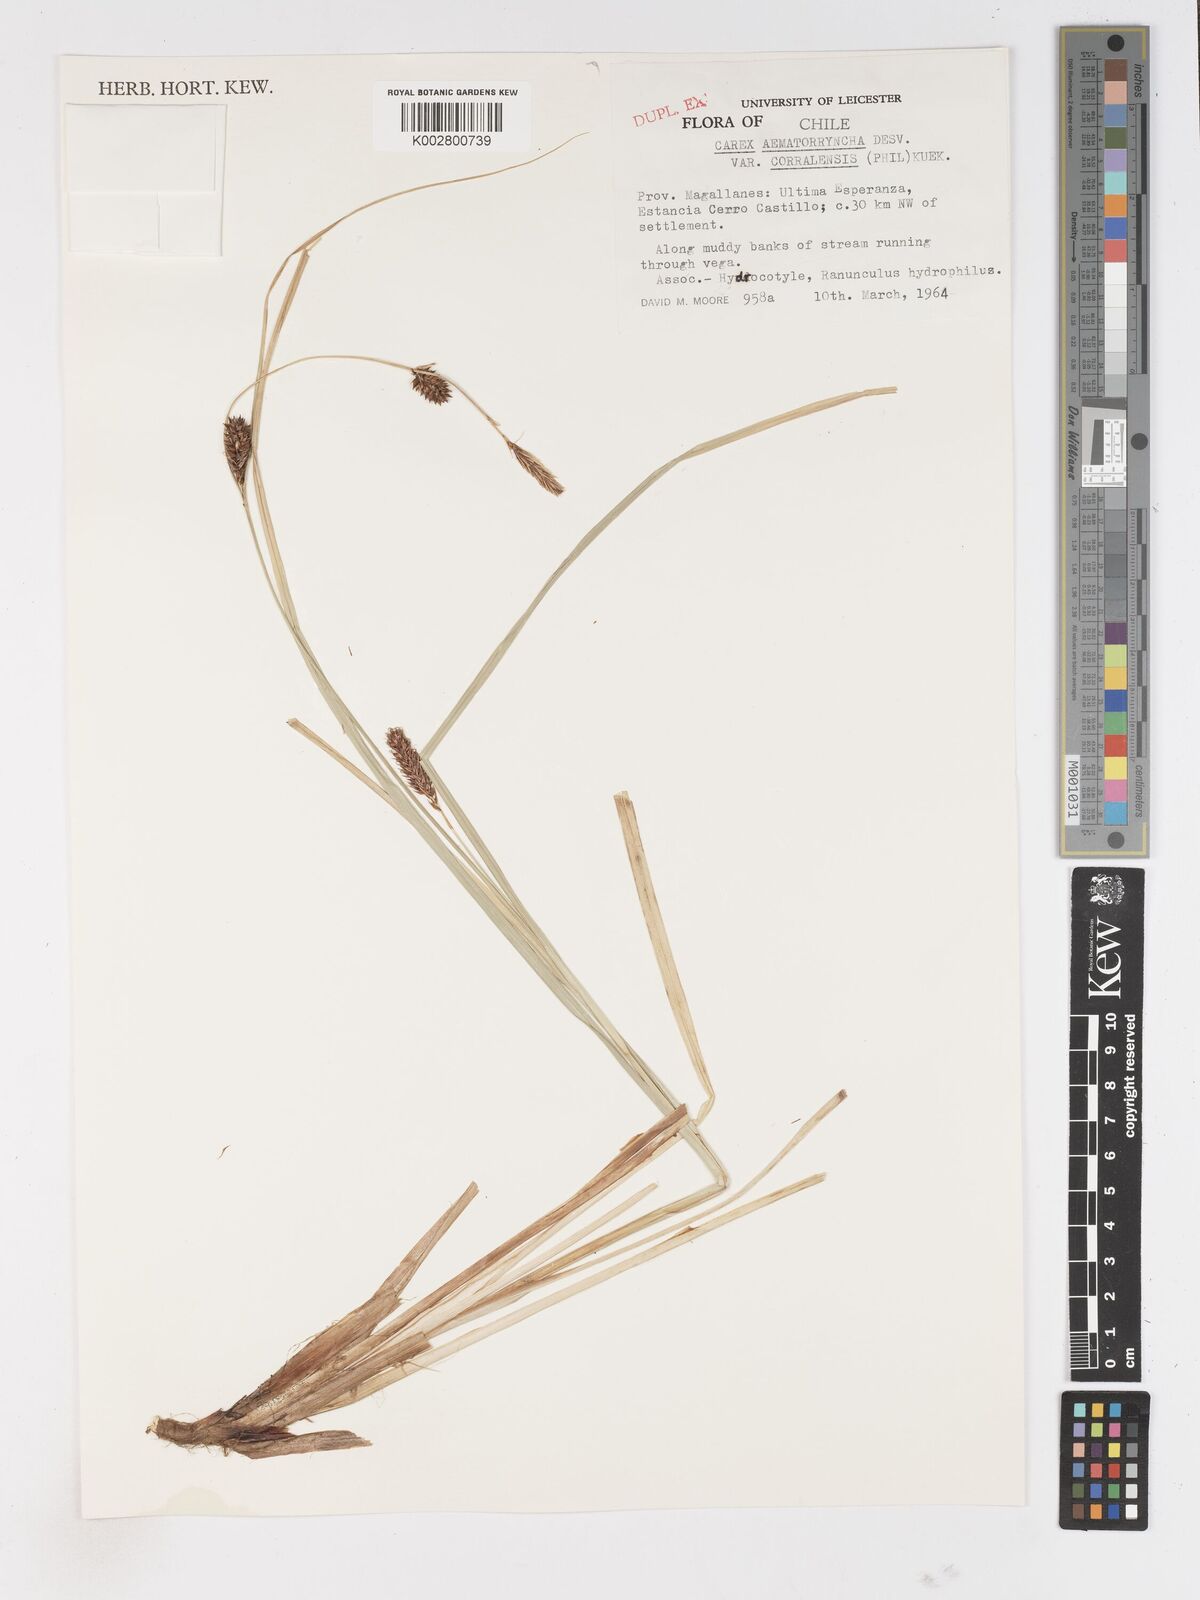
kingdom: Plantae
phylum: Tracheophyta
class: Liliopsida
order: Poales
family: Cyperaceae
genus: Carex
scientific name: Carex aematorhyncha
